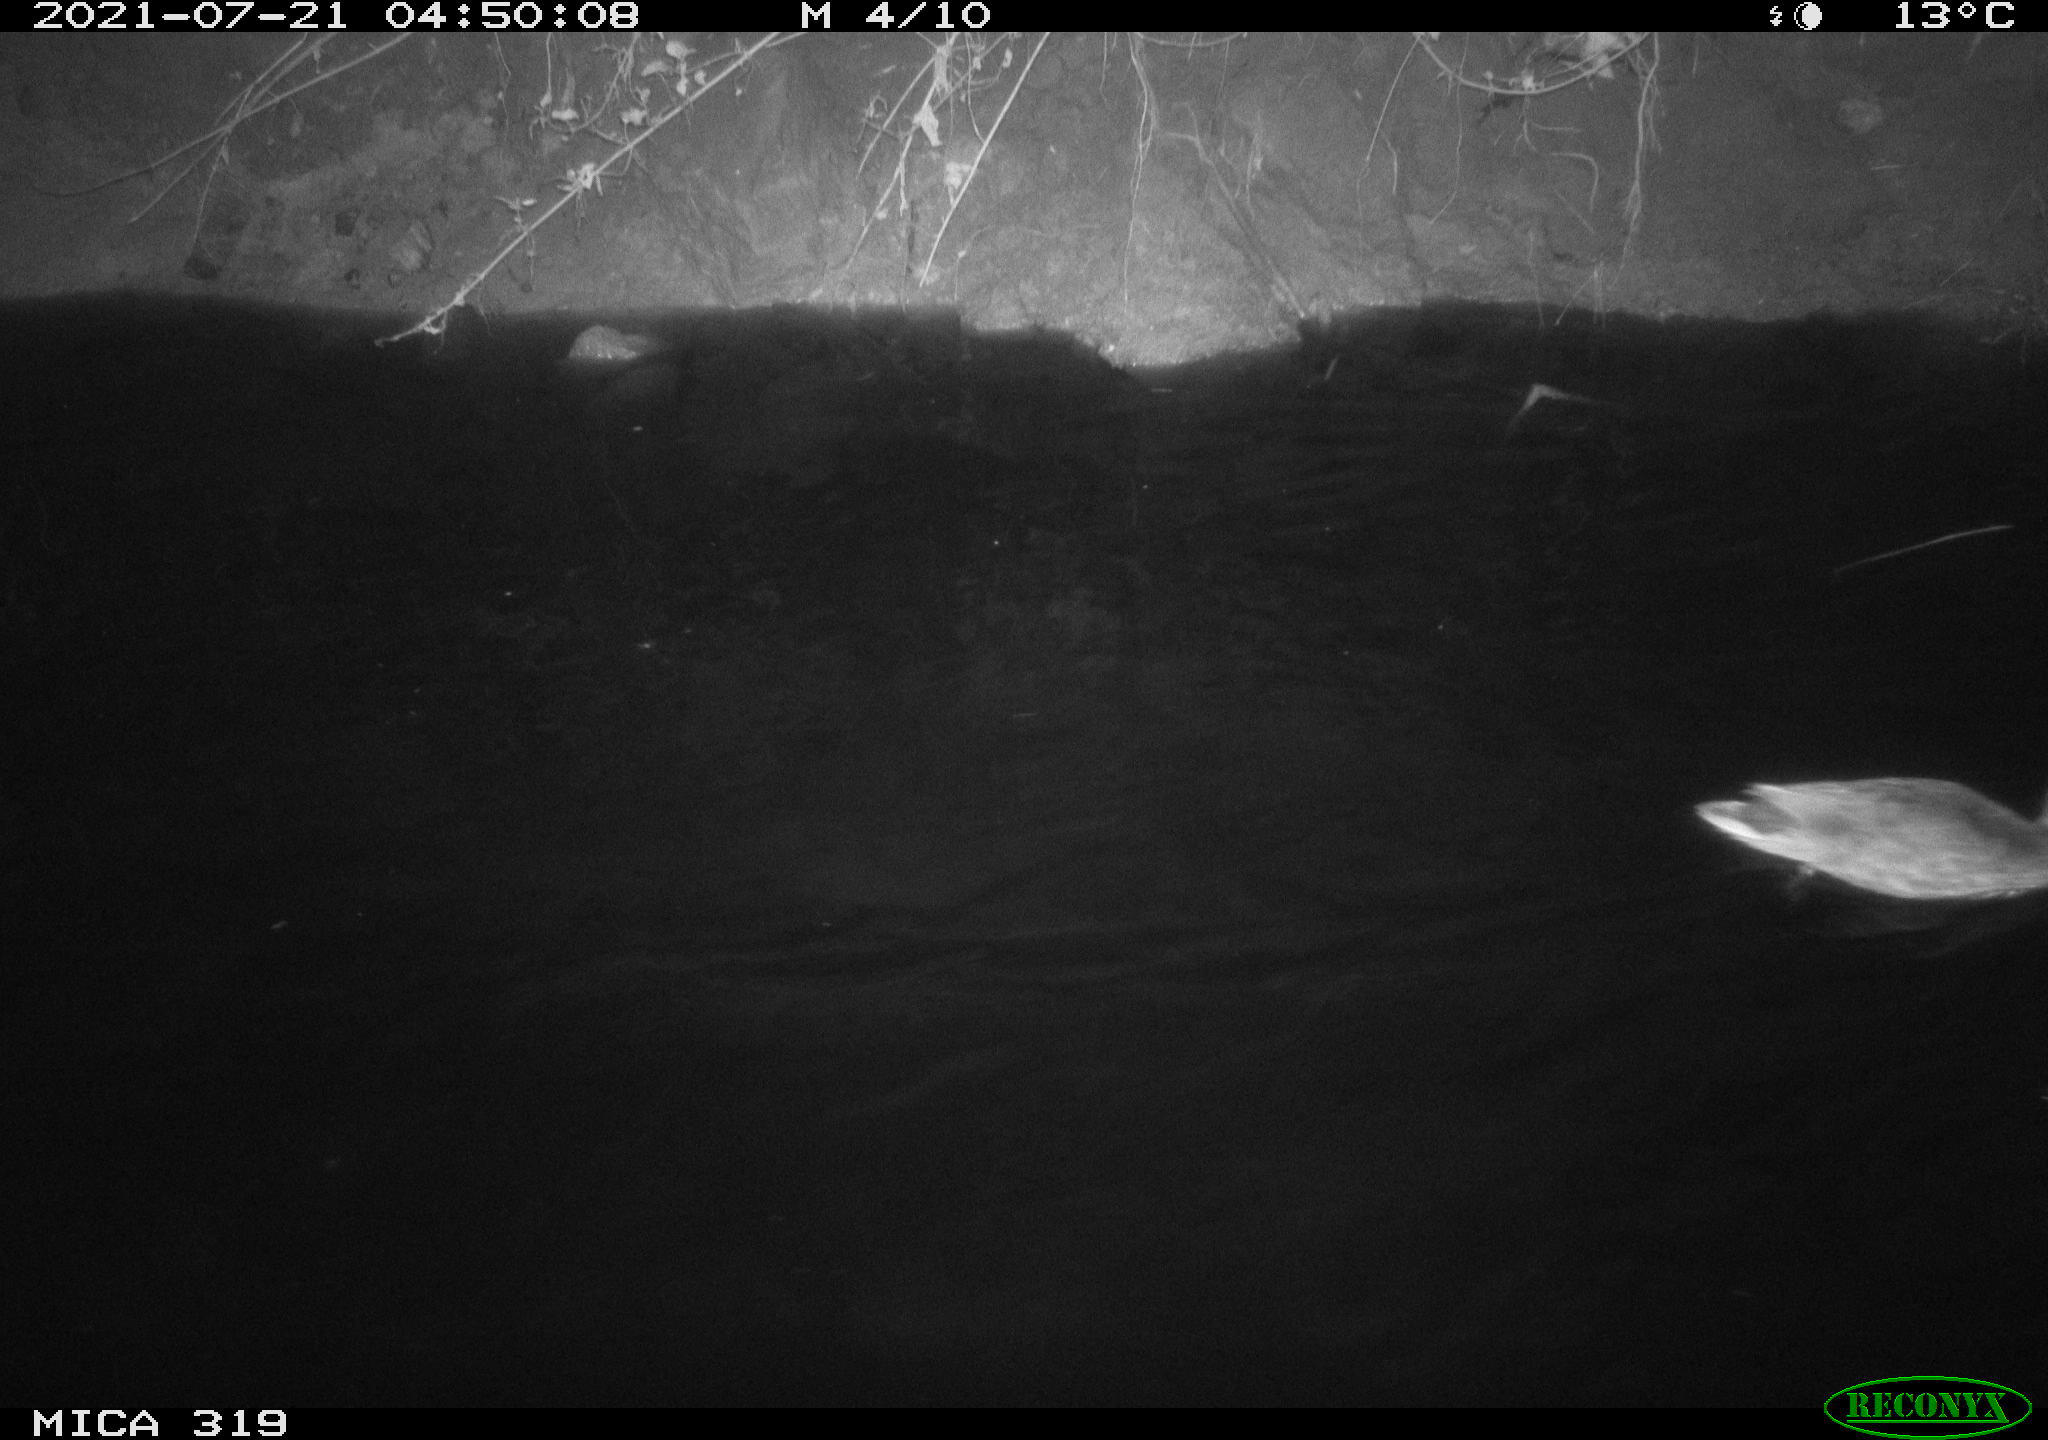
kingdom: Animalia
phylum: Chordata
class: Aves
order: Anseriformes
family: Anatidae
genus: Anas
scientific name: Anas platyrhynchos
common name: Mallard
